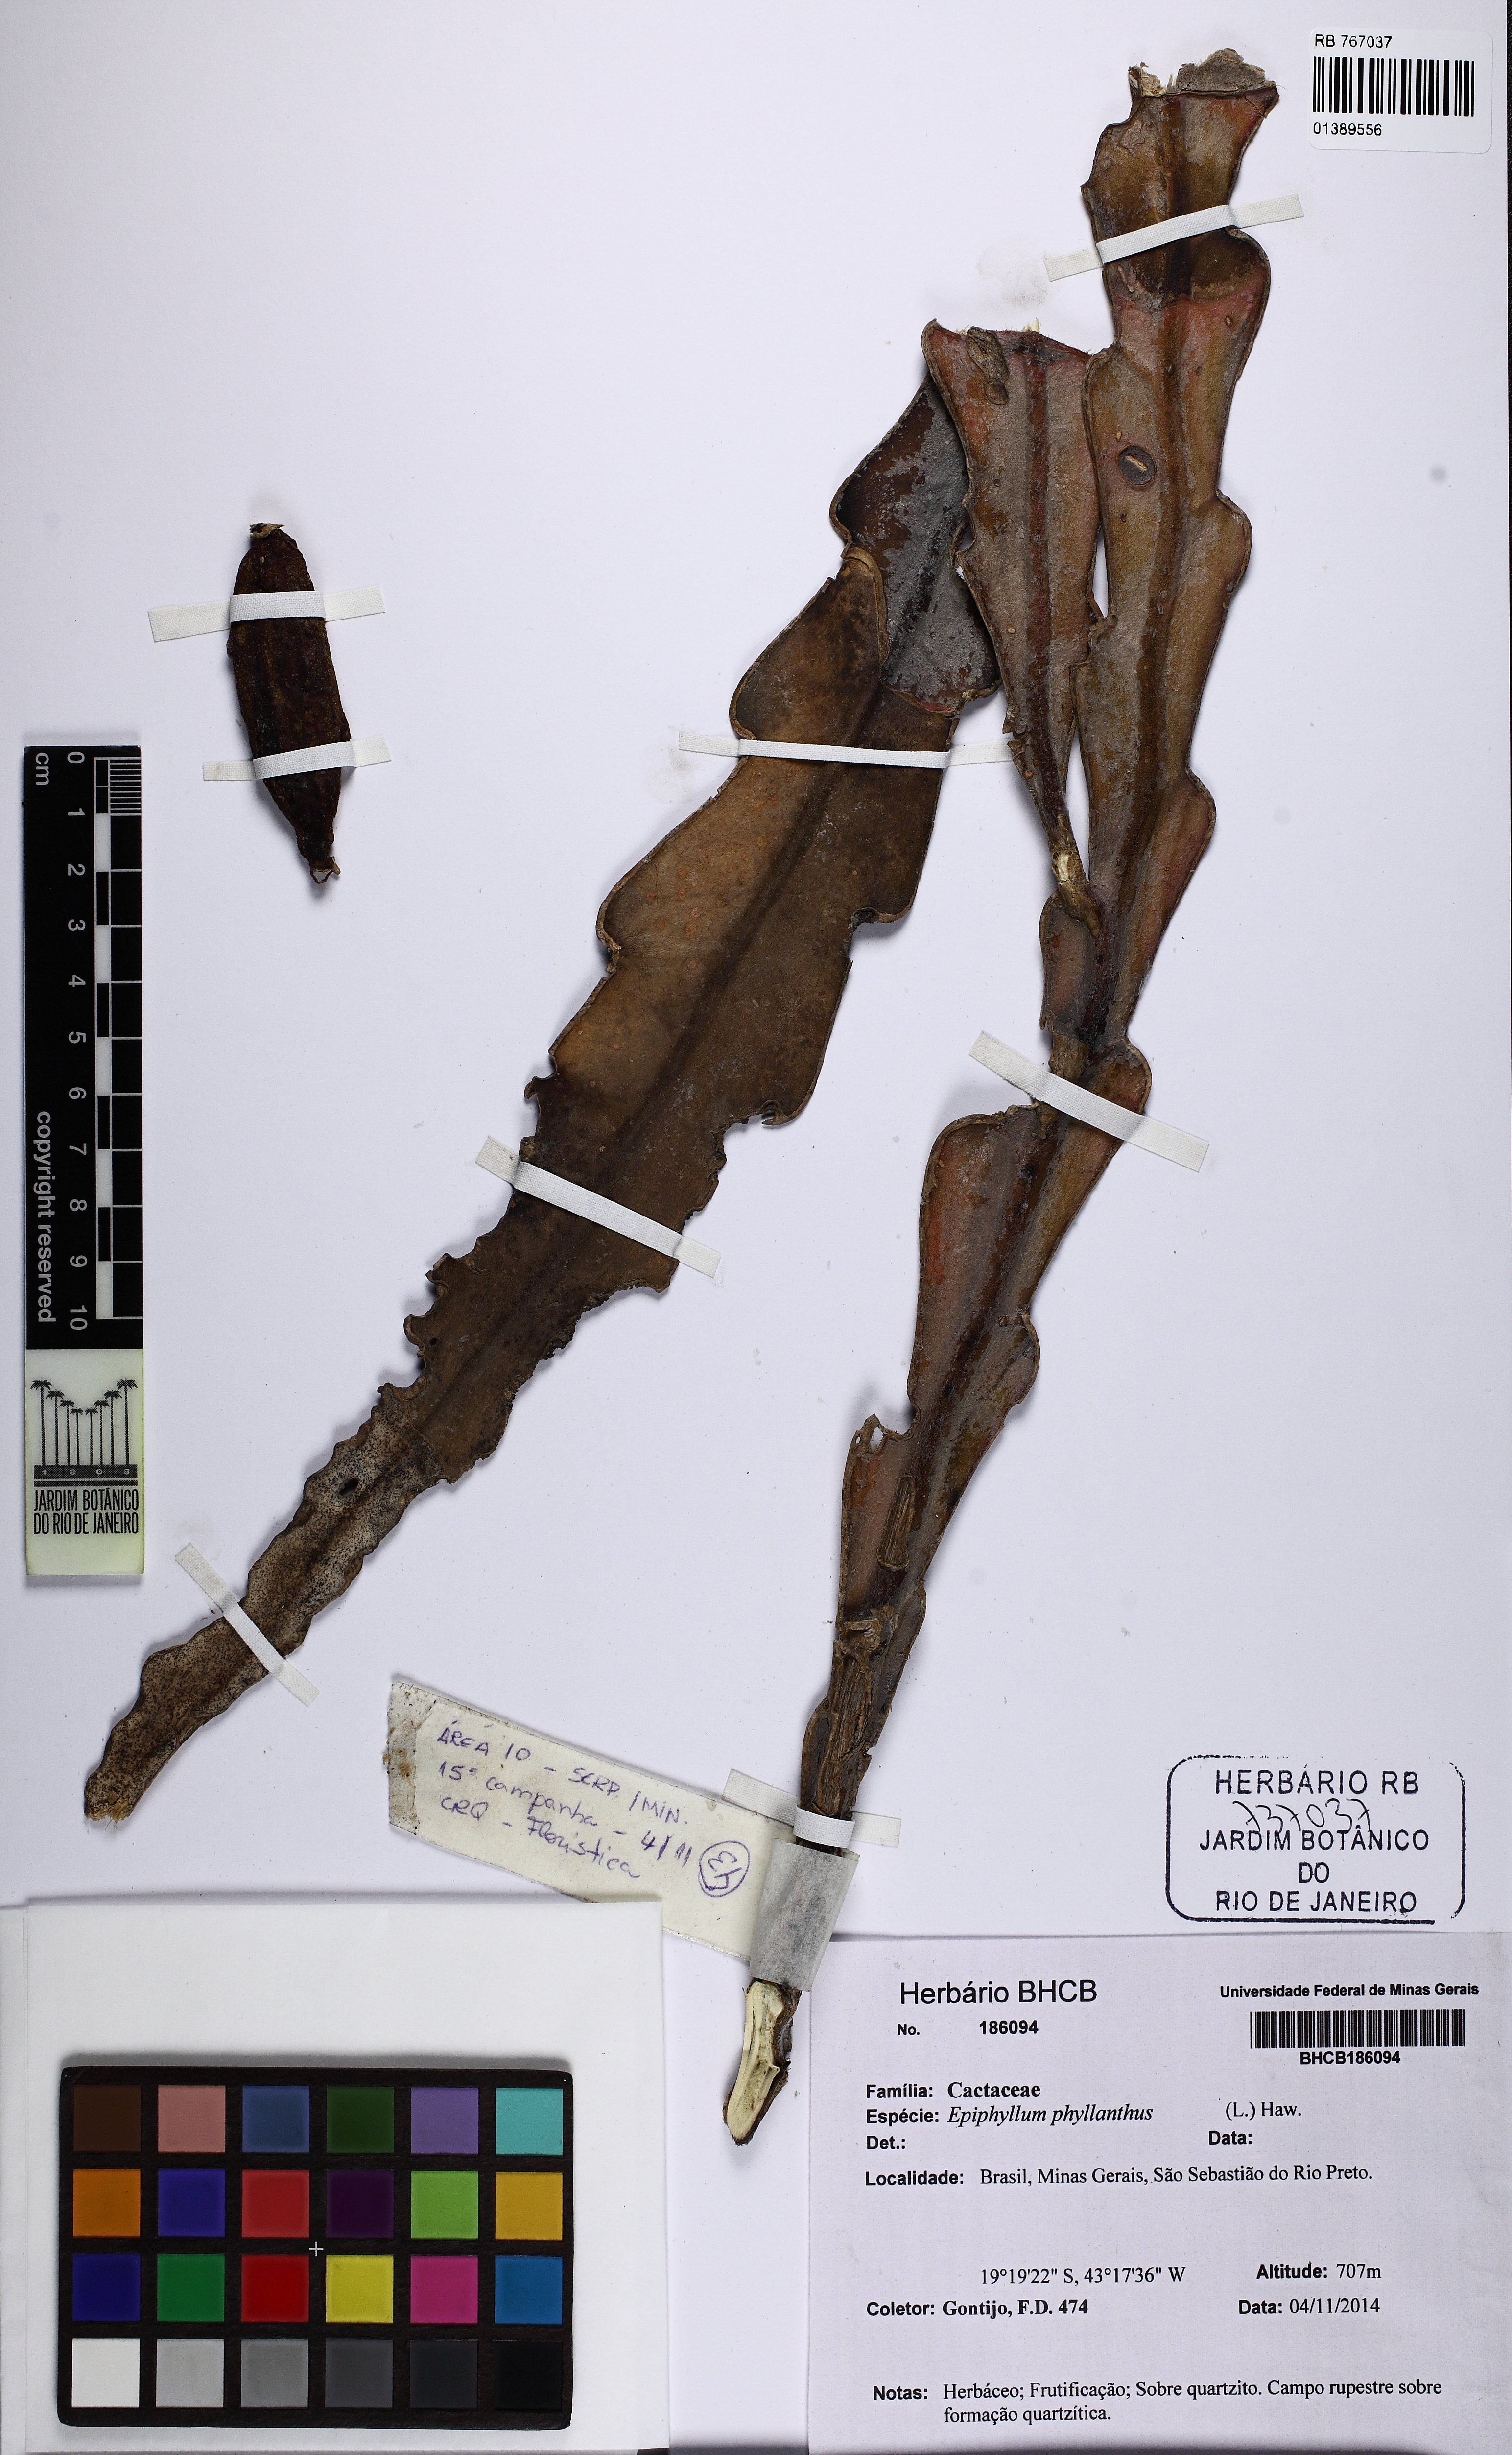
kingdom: Plantae
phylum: Tracheophyta
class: Magnoliopsida
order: Caryophyllales
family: Cactaceae
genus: Epiphyllum
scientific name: Epiphyllum phyllanthus
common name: Climbing cactus
